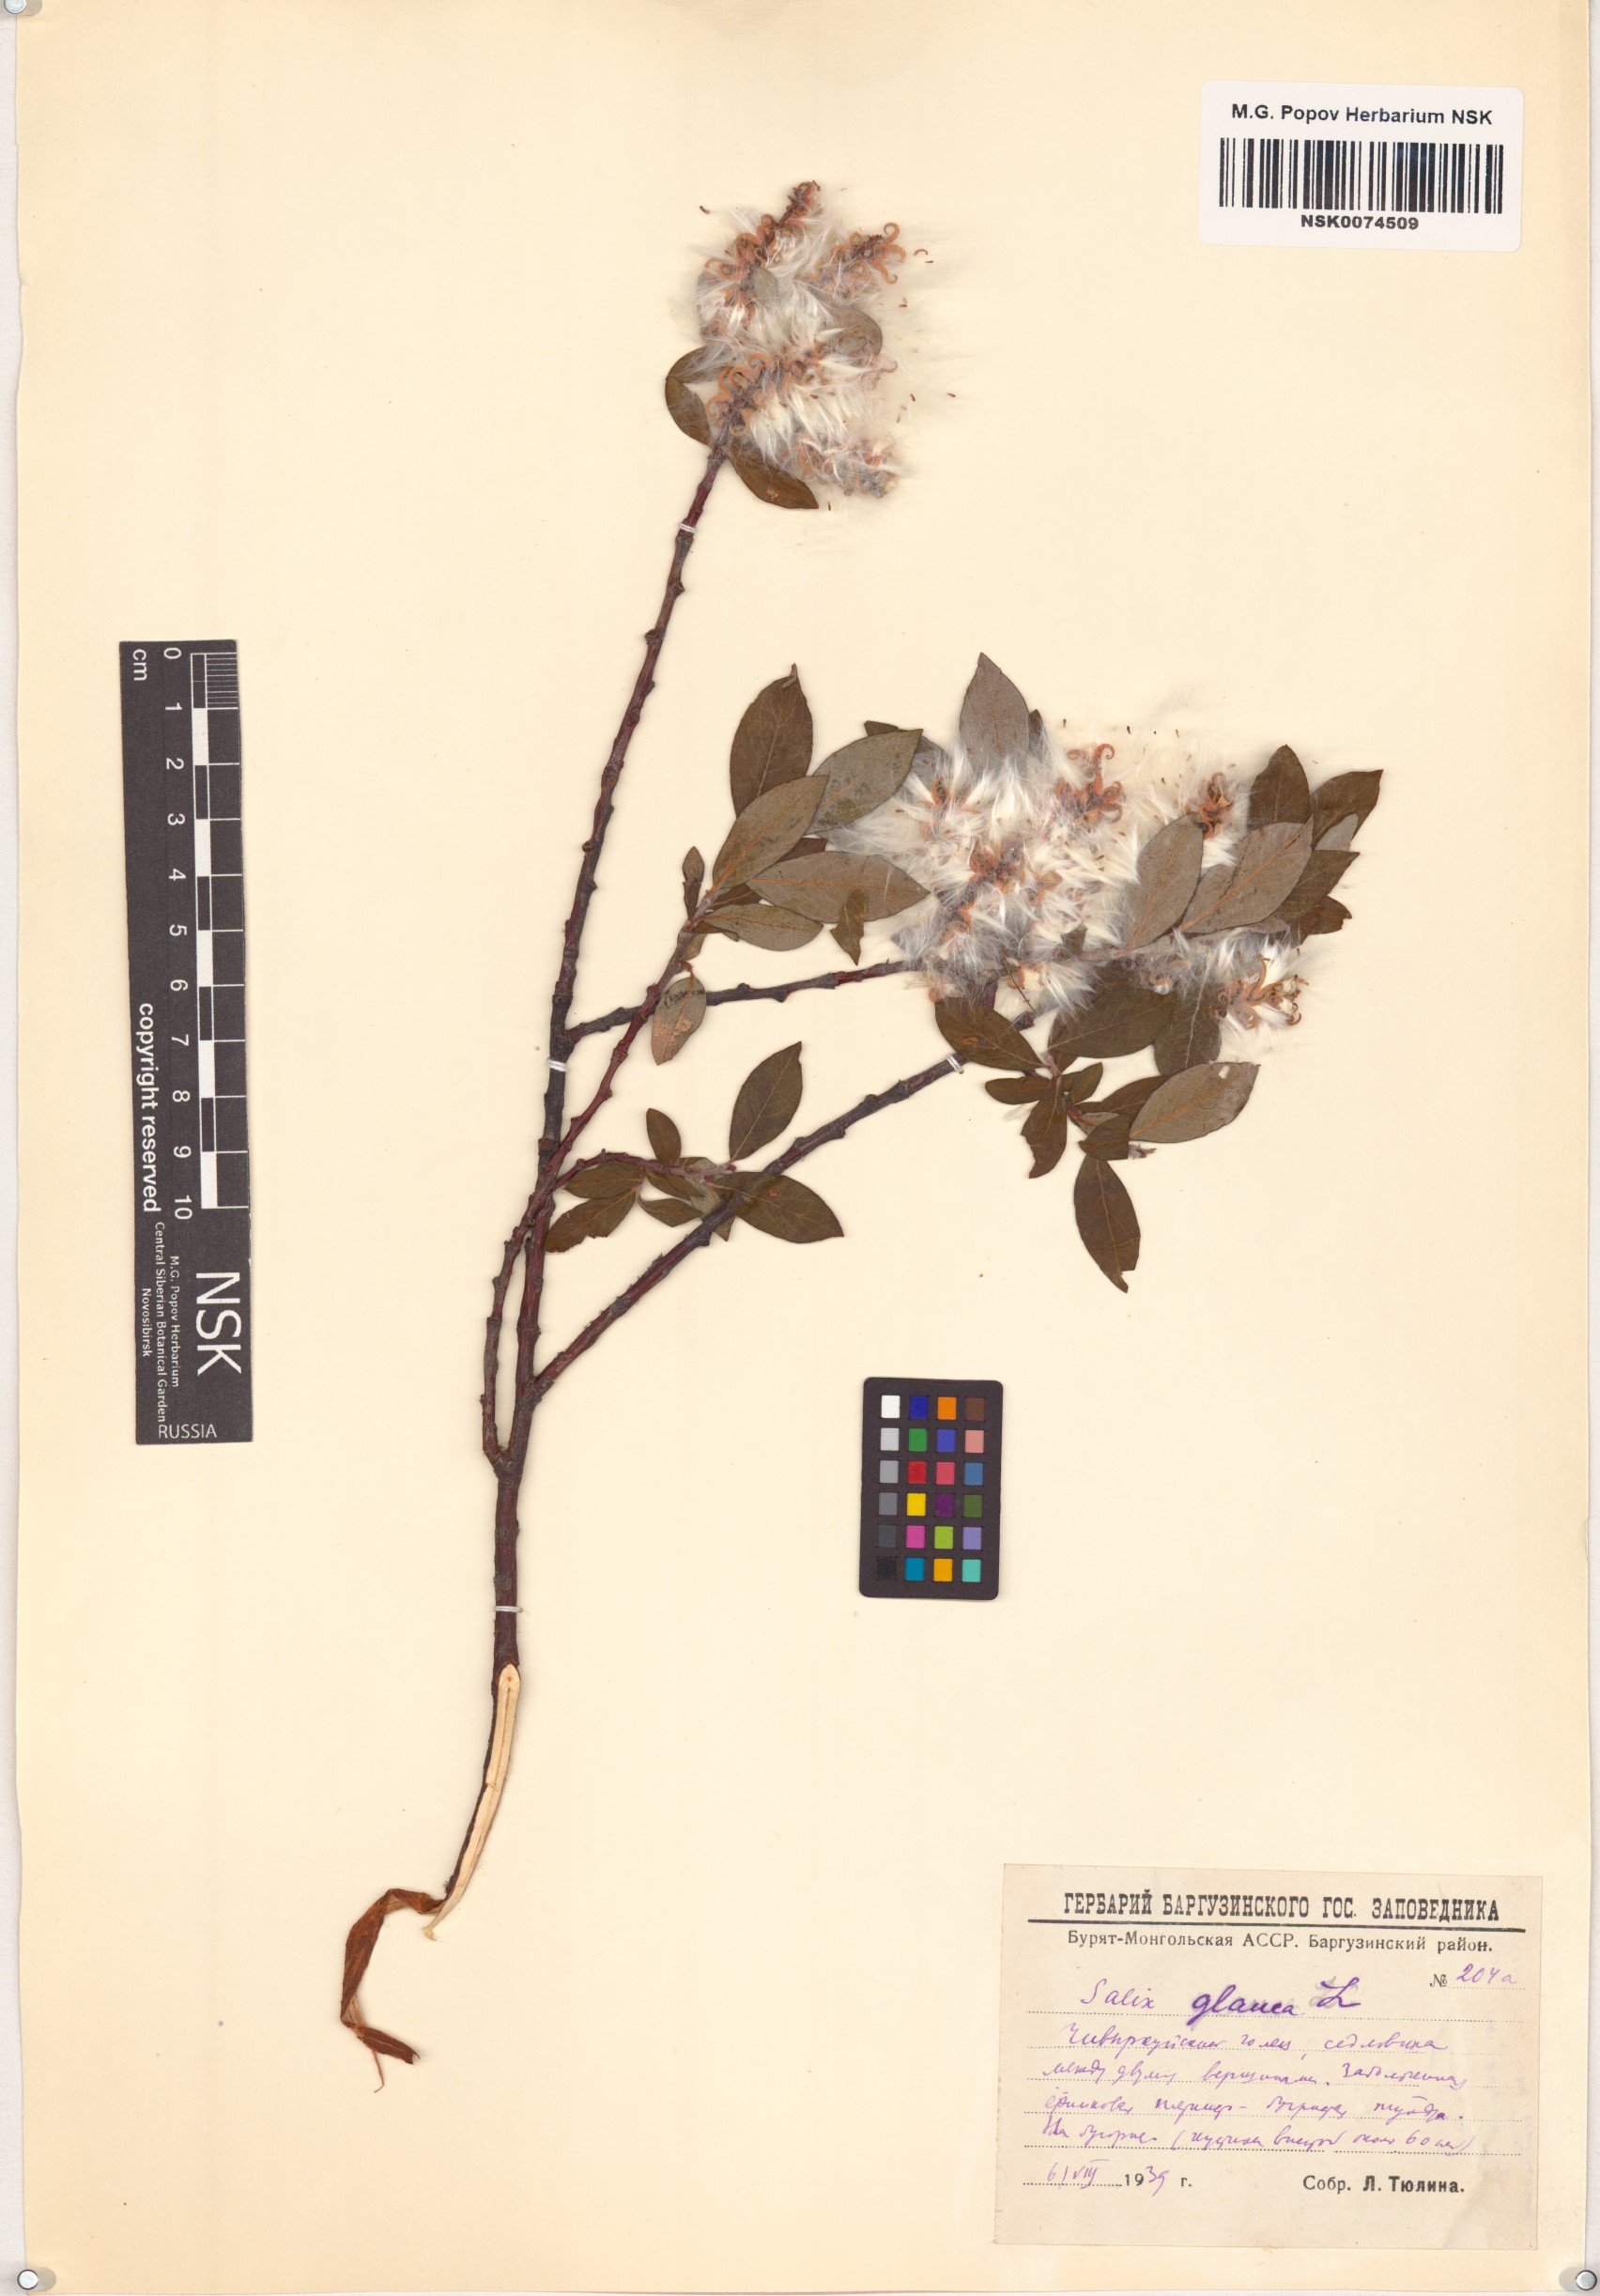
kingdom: Plantae
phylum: Tracheophyta
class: Magnoliopsida
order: Malpighiales
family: Salicaceae
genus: Salix
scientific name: Salix glauca
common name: Glaucous willow
